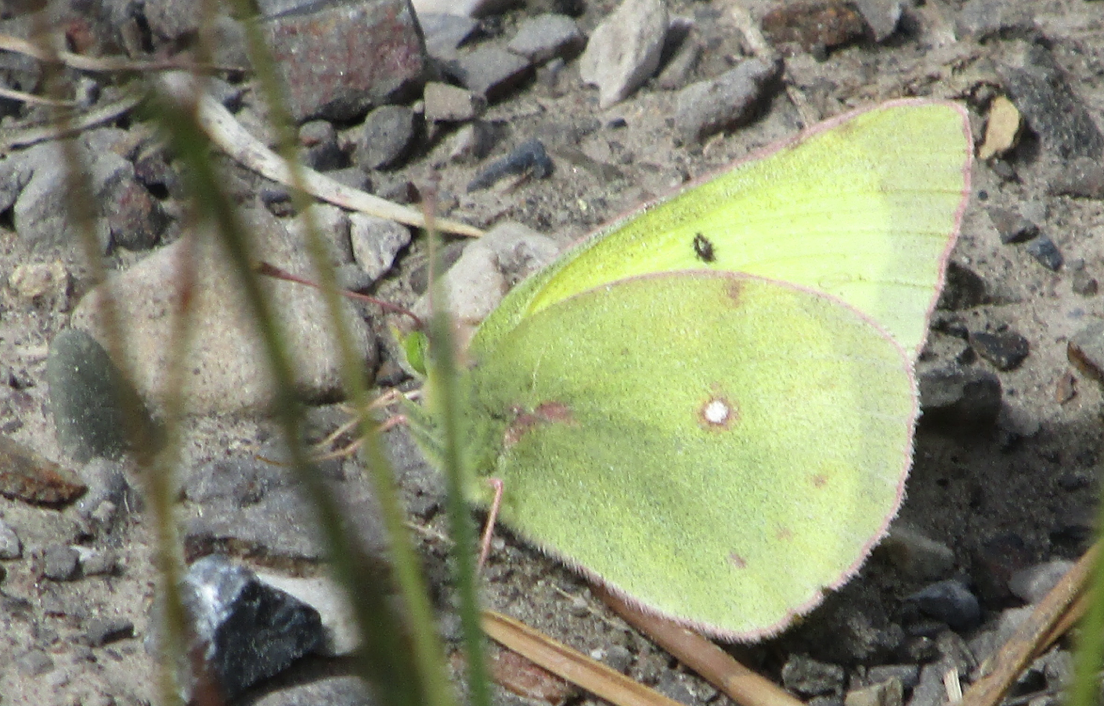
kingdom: Animalia
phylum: Arthropoda
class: Insecta
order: Lepidoptera
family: Pieridae
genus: Colias
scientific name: Colias philodice
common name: Clouded Sulphur
